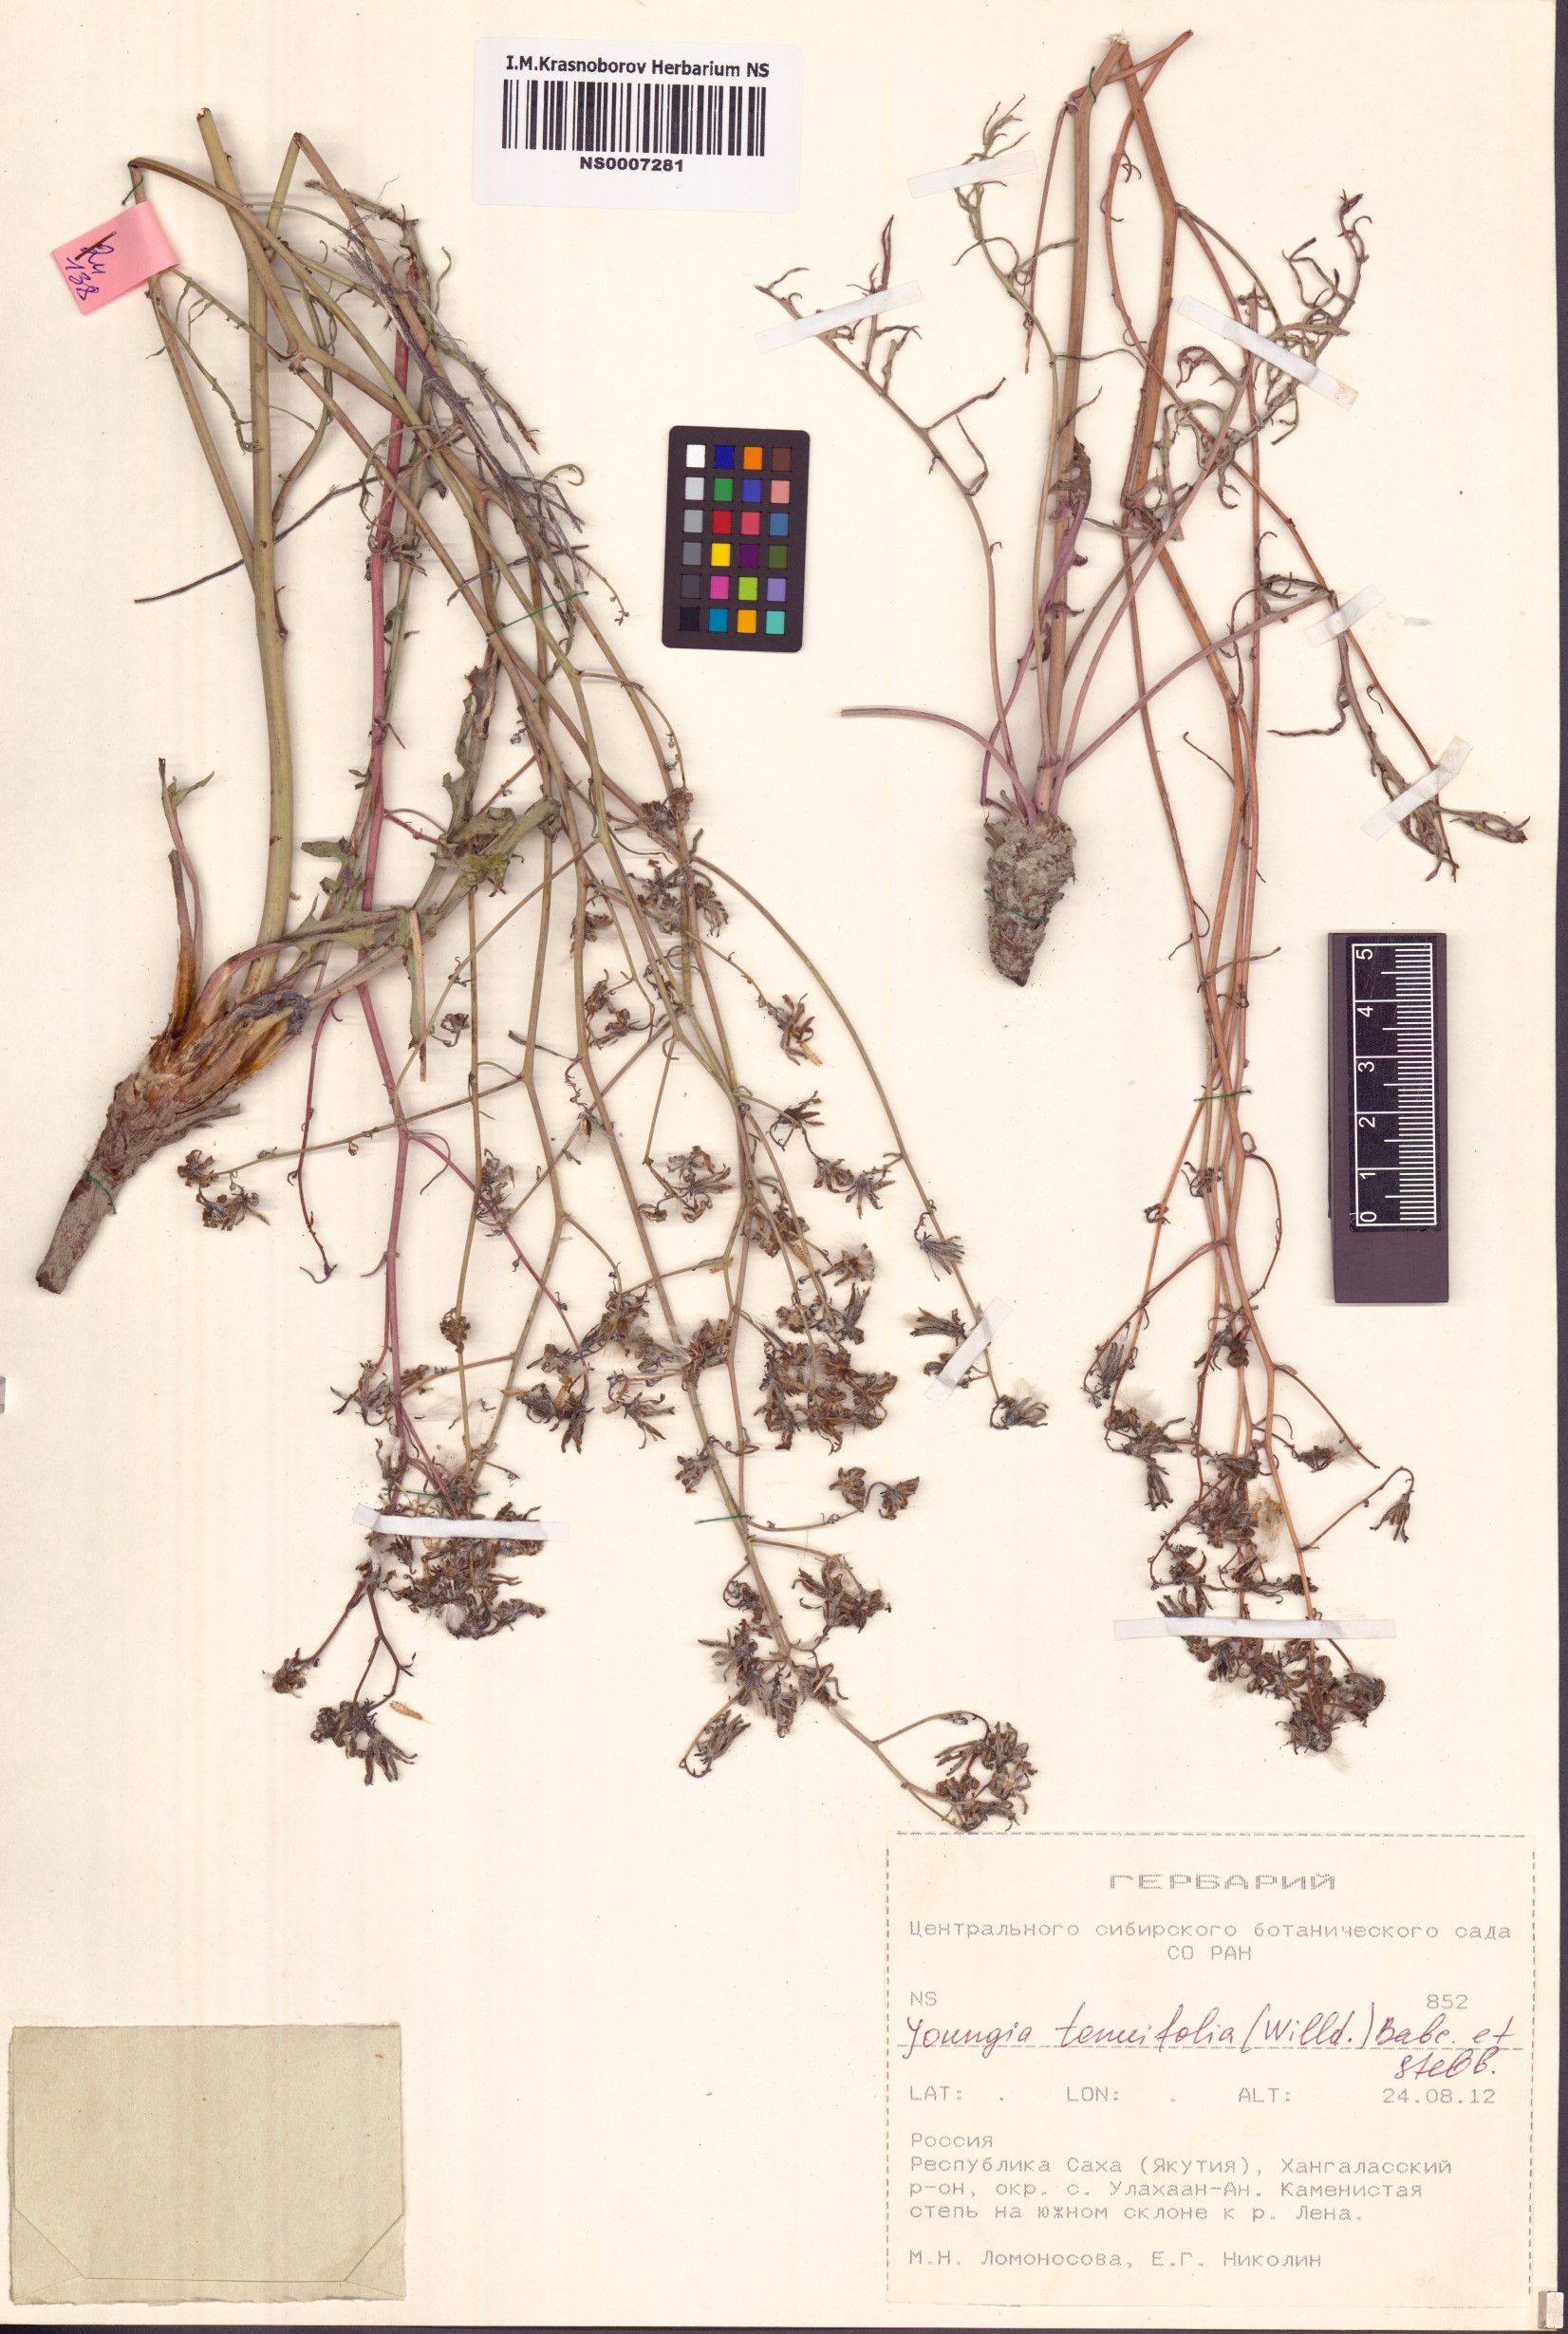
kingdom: Plantae
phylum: Tracheophyta
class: Magnoliopsida
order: Asterales
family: Asteraceae
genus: Crepidiastrum
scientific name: Crepidiastrum tenuifolium
